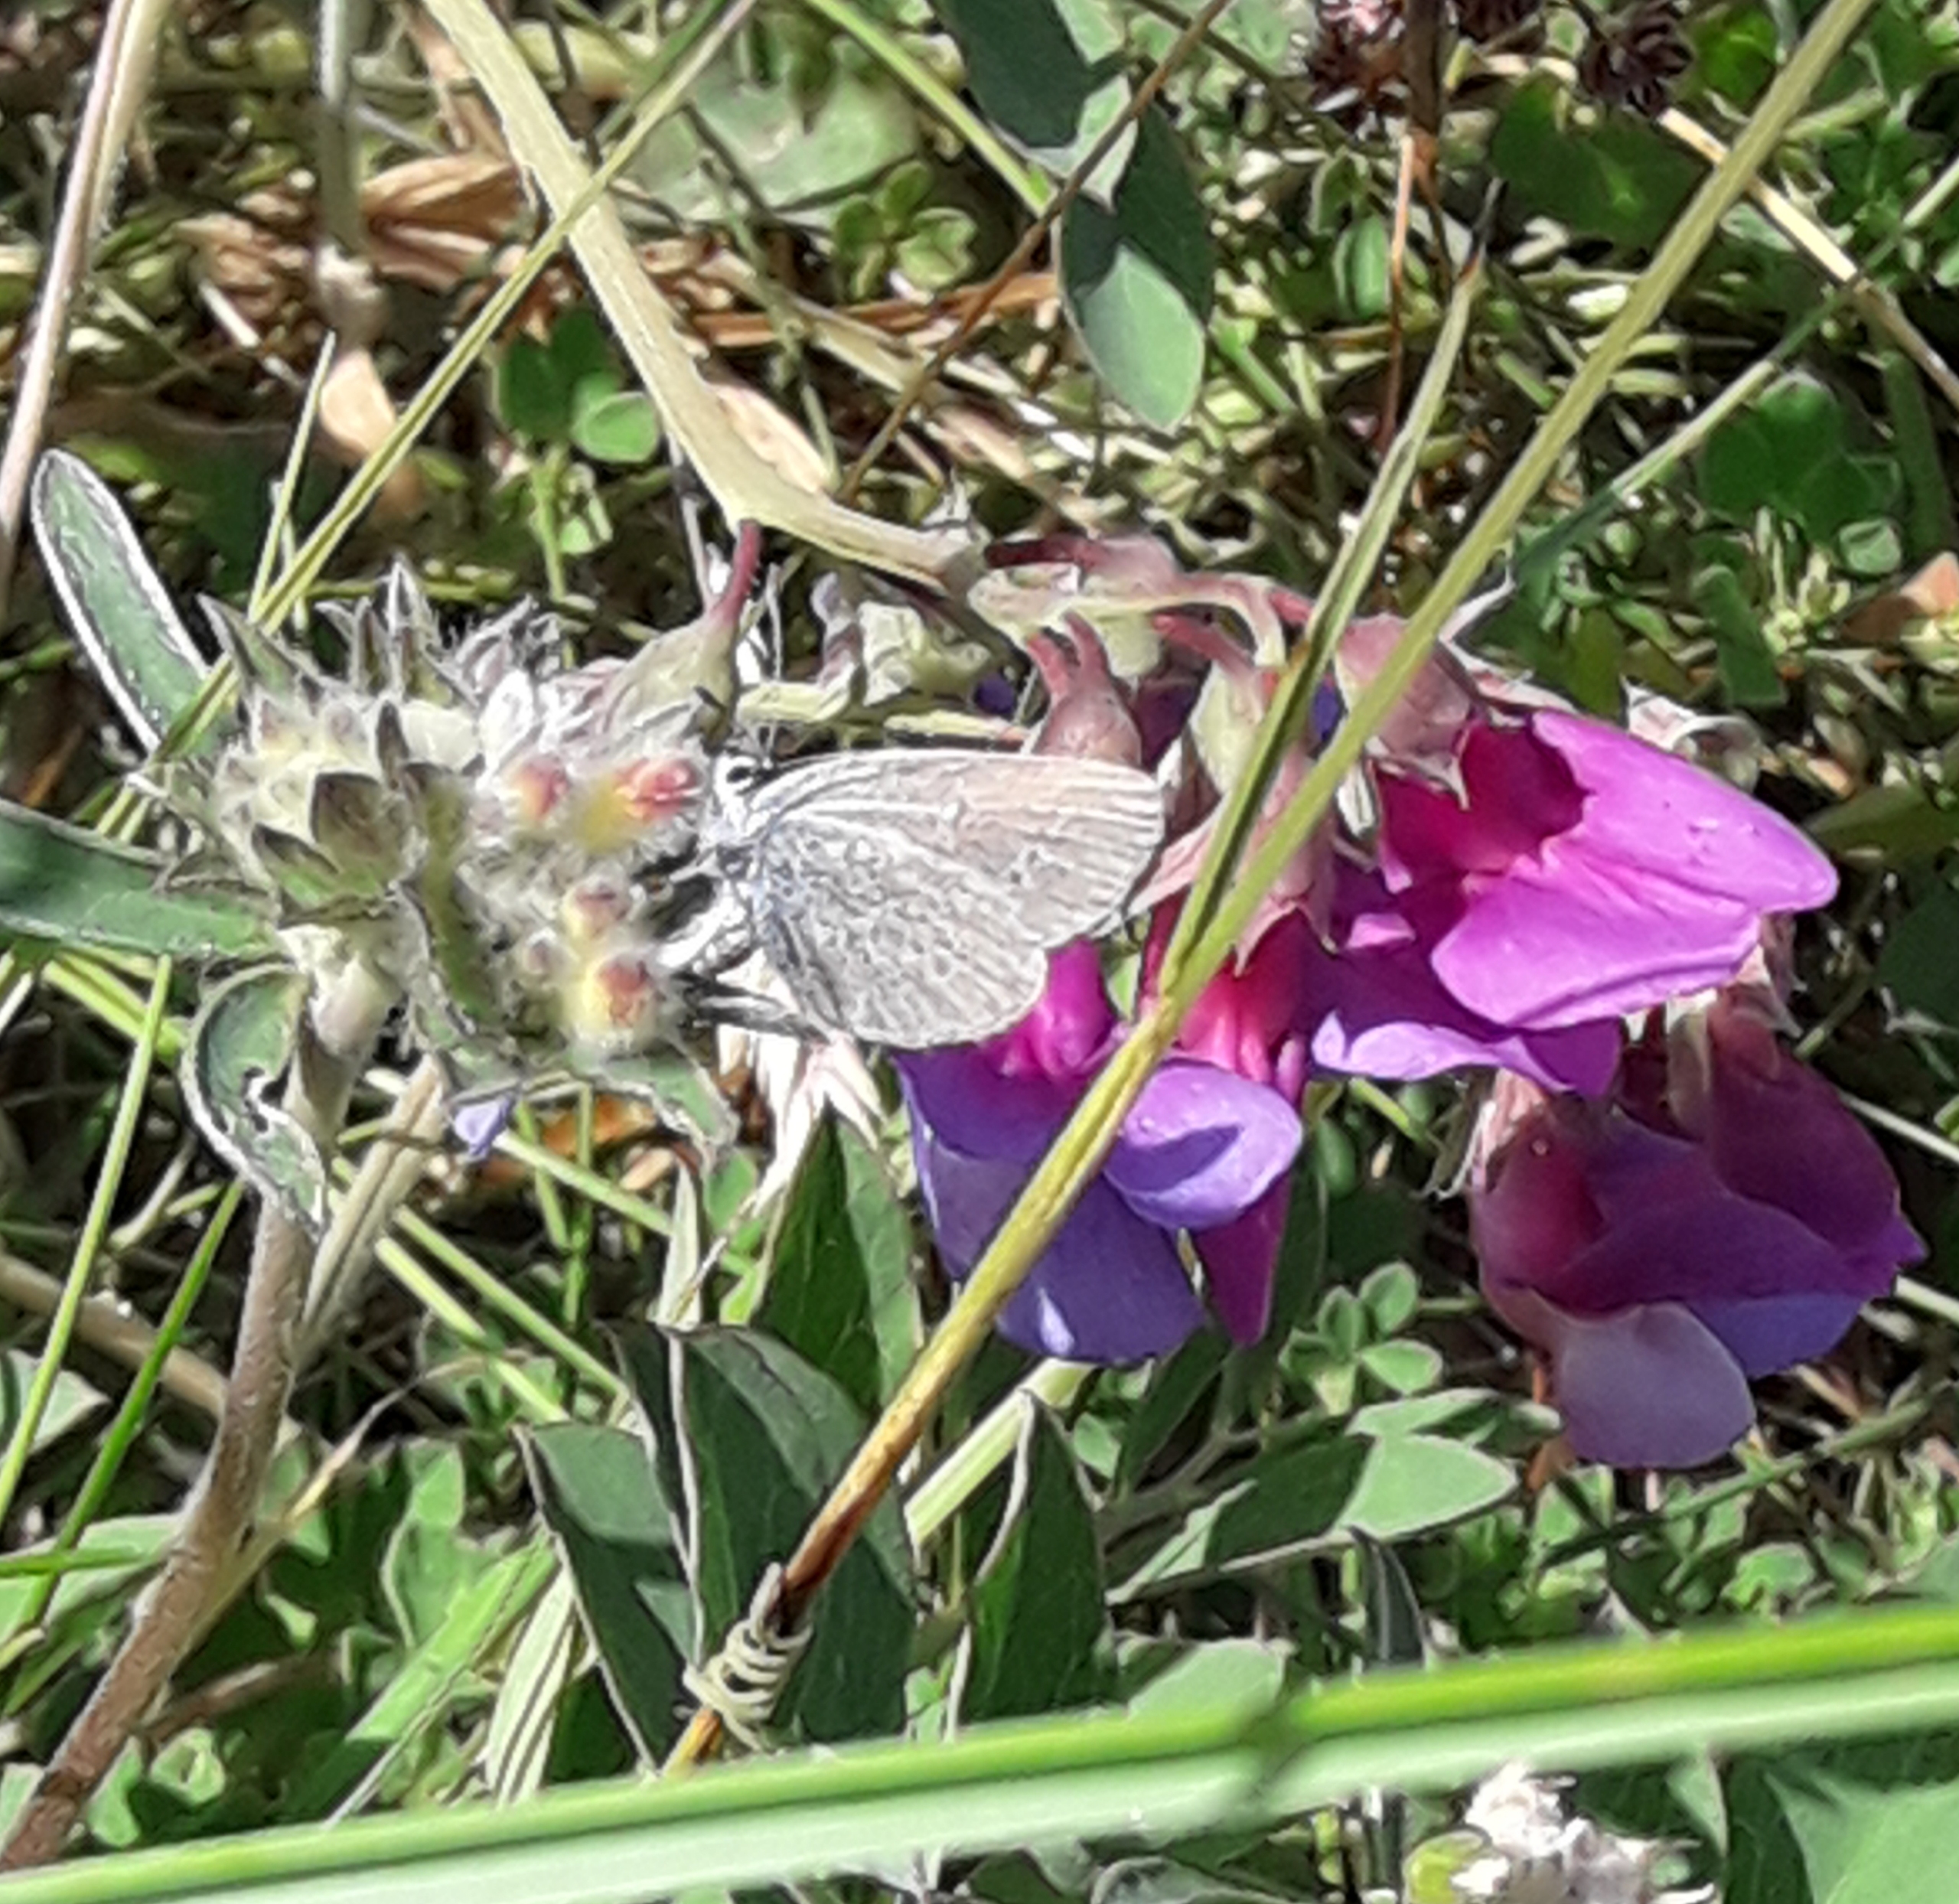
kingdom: Animalia
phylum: Arthropoda
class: Insecta
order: Lepidoptera
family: Lycaenidae
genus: Cupido
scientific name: Cupido minimus
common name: Dværgblåfugl
